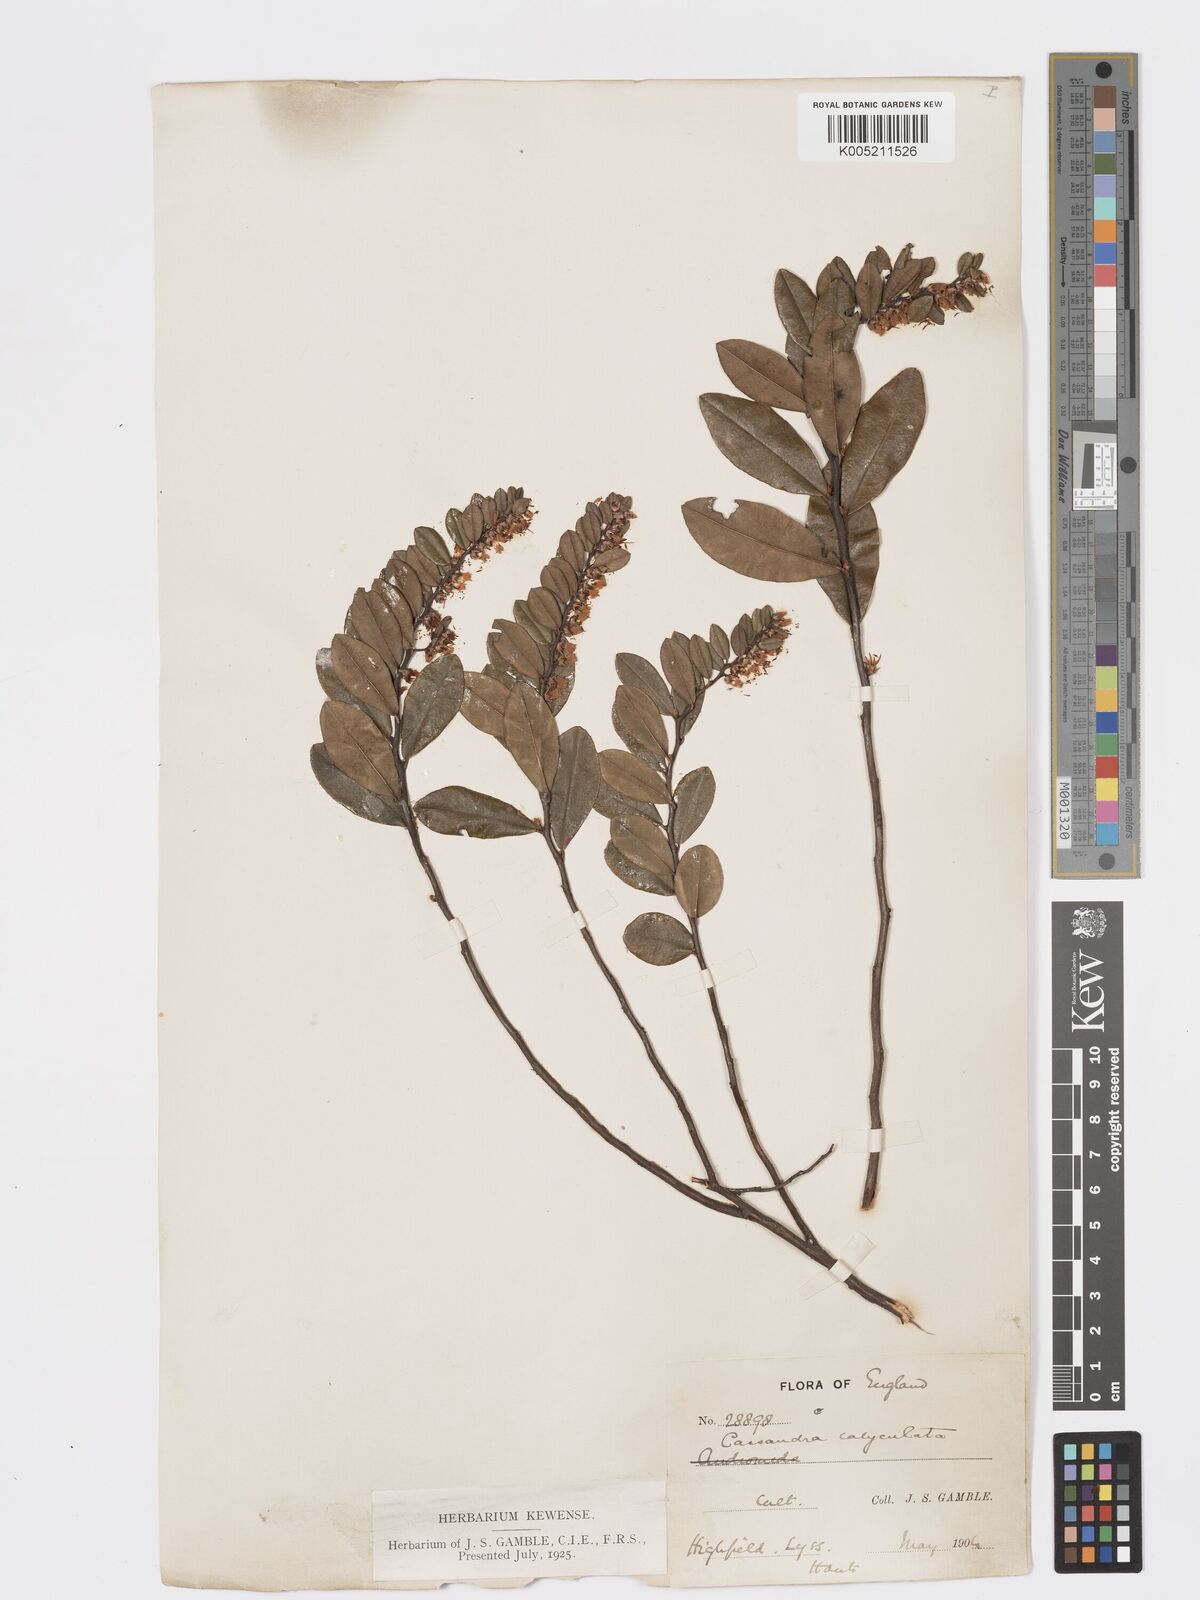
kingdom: Plantae
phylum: Tracheophyta
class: Magnoliopsida
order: Ericales
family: Ericaceae
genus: Chamaedaphne
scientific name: Chamaedaphne calyculata
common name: Leatherleaf
